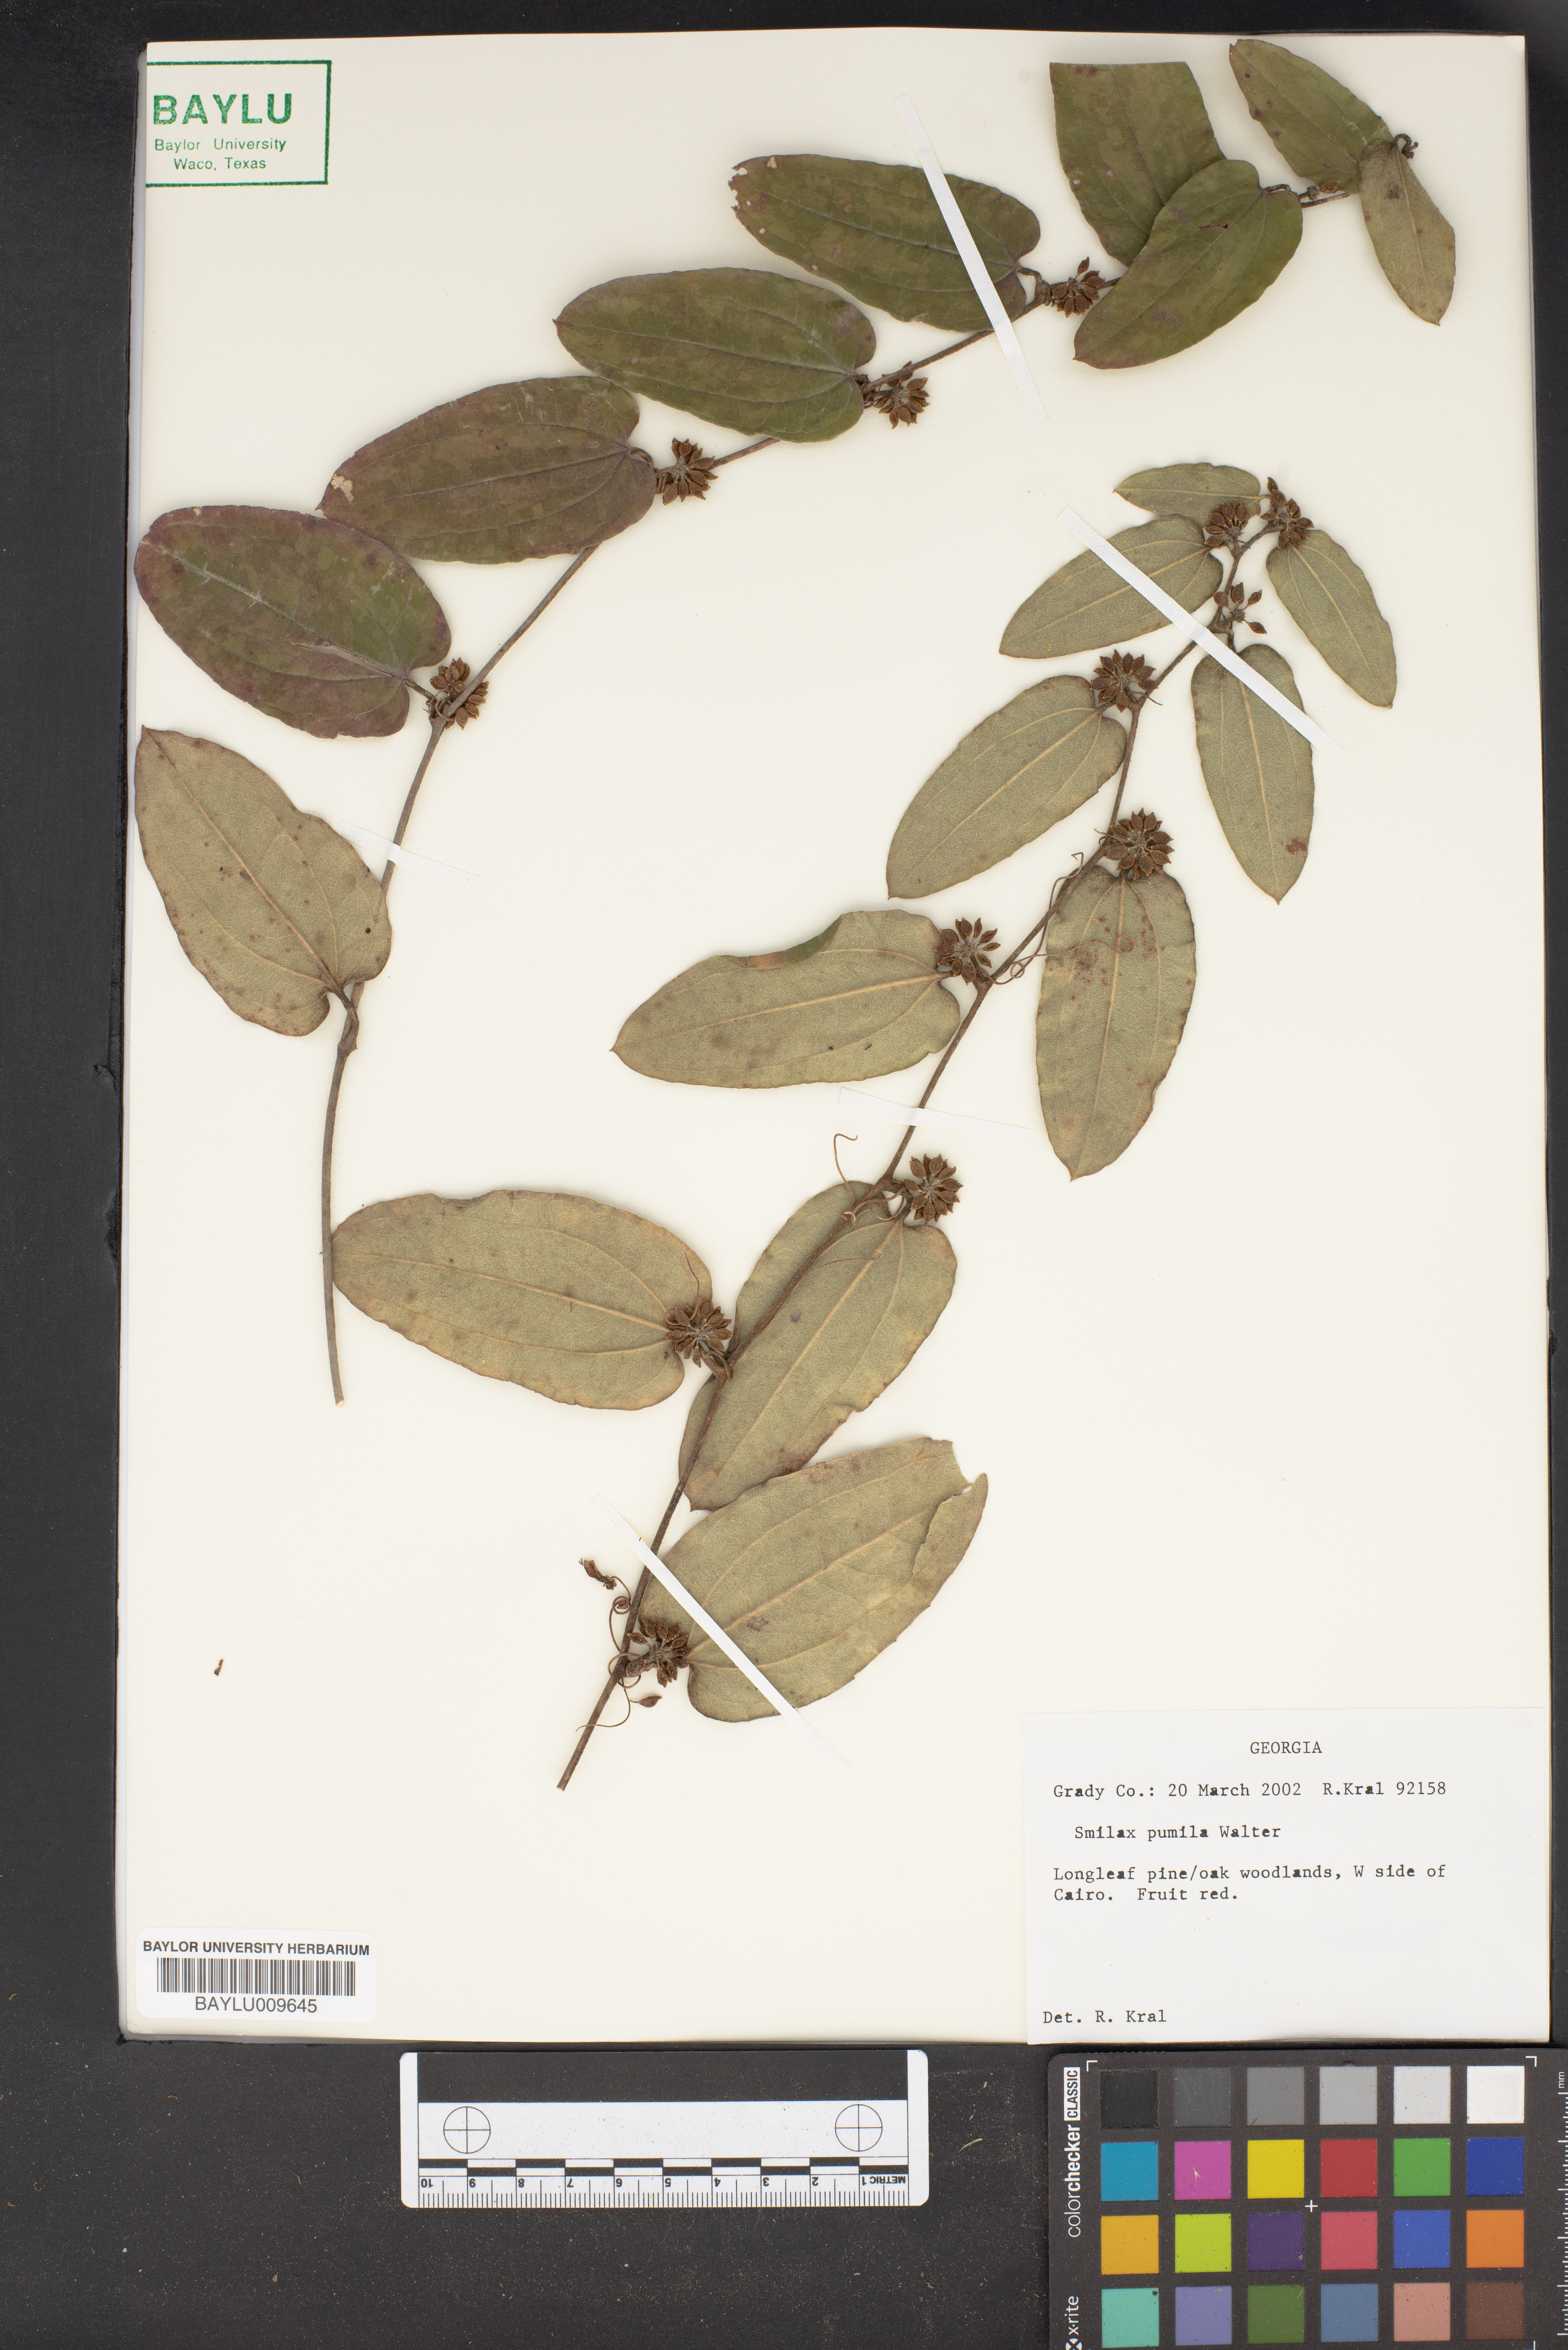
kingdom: Plantae
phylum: Tracheophyta
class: Liliopsida
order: Liliales
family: Smilacaceae
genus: Smilax
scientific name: Smilax pumila
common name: Sarsaparilla-vine
